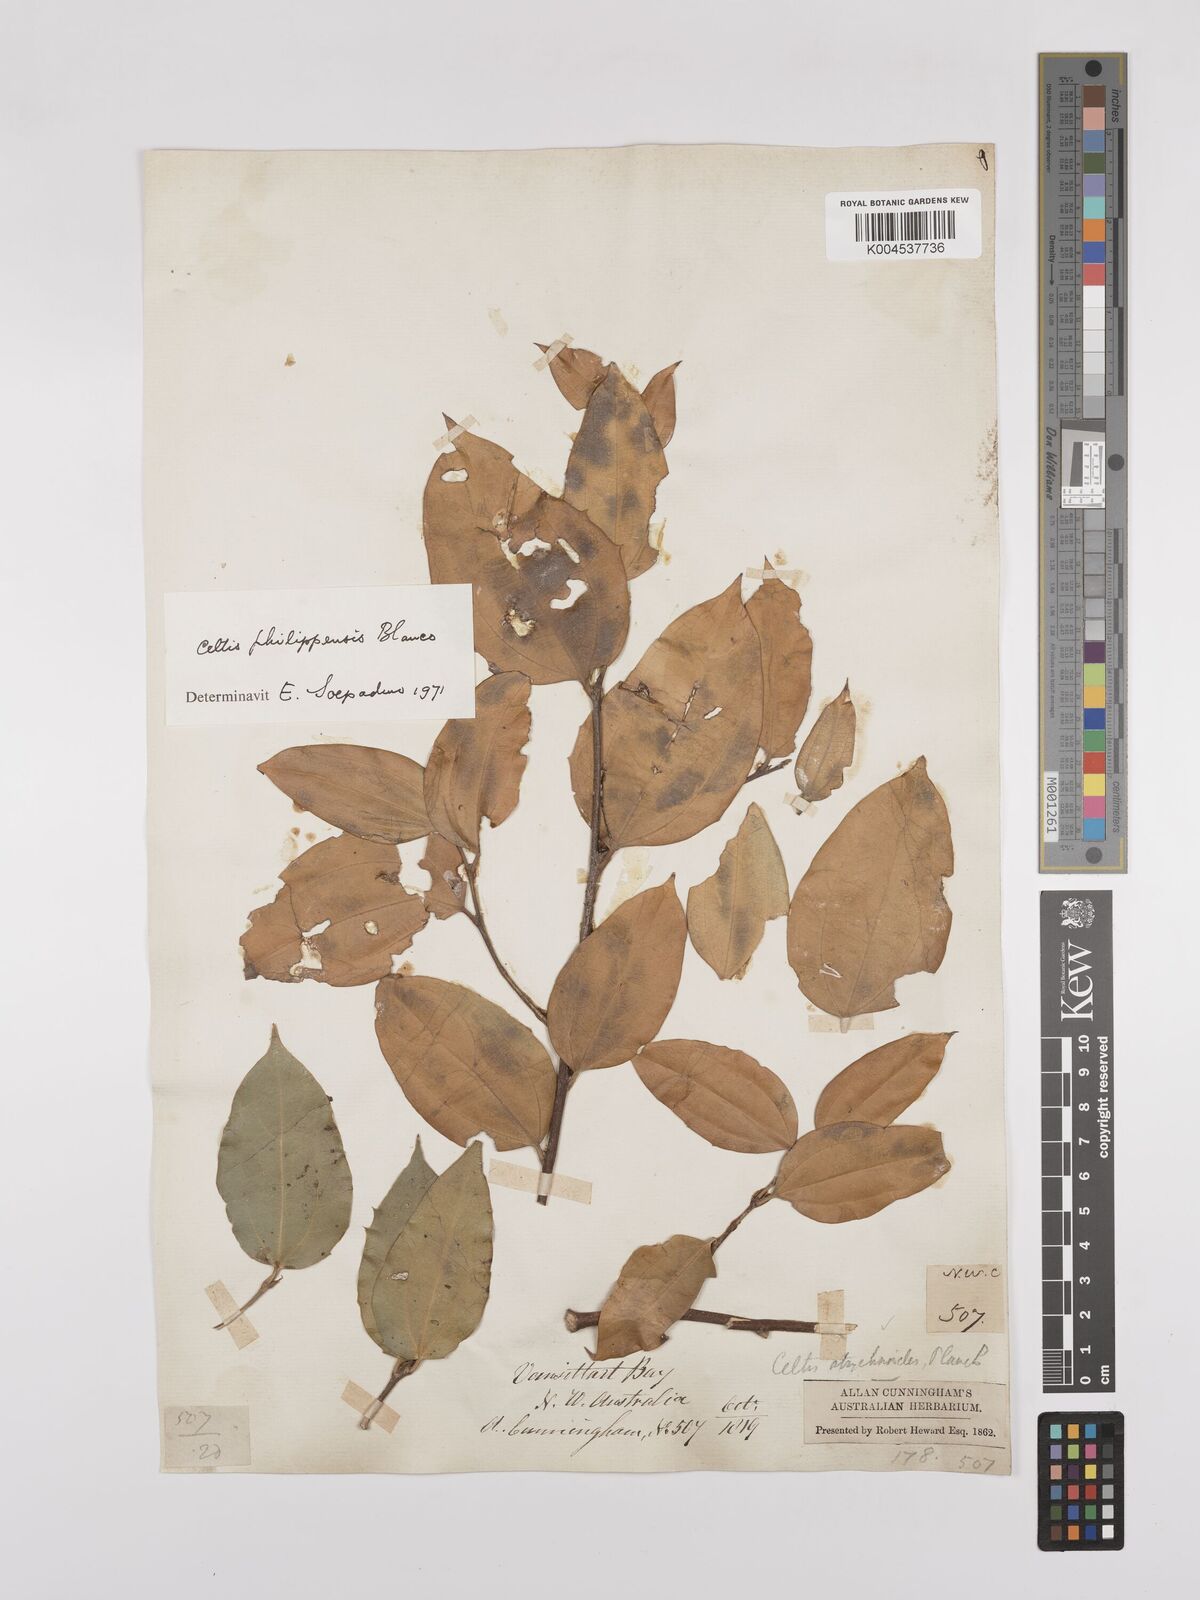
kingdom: Plantae
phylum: Tracheophyta
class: Magnoliopsida
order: Rosales
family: Cannabaceae
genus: Celtis
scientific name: Celtis philippensis
